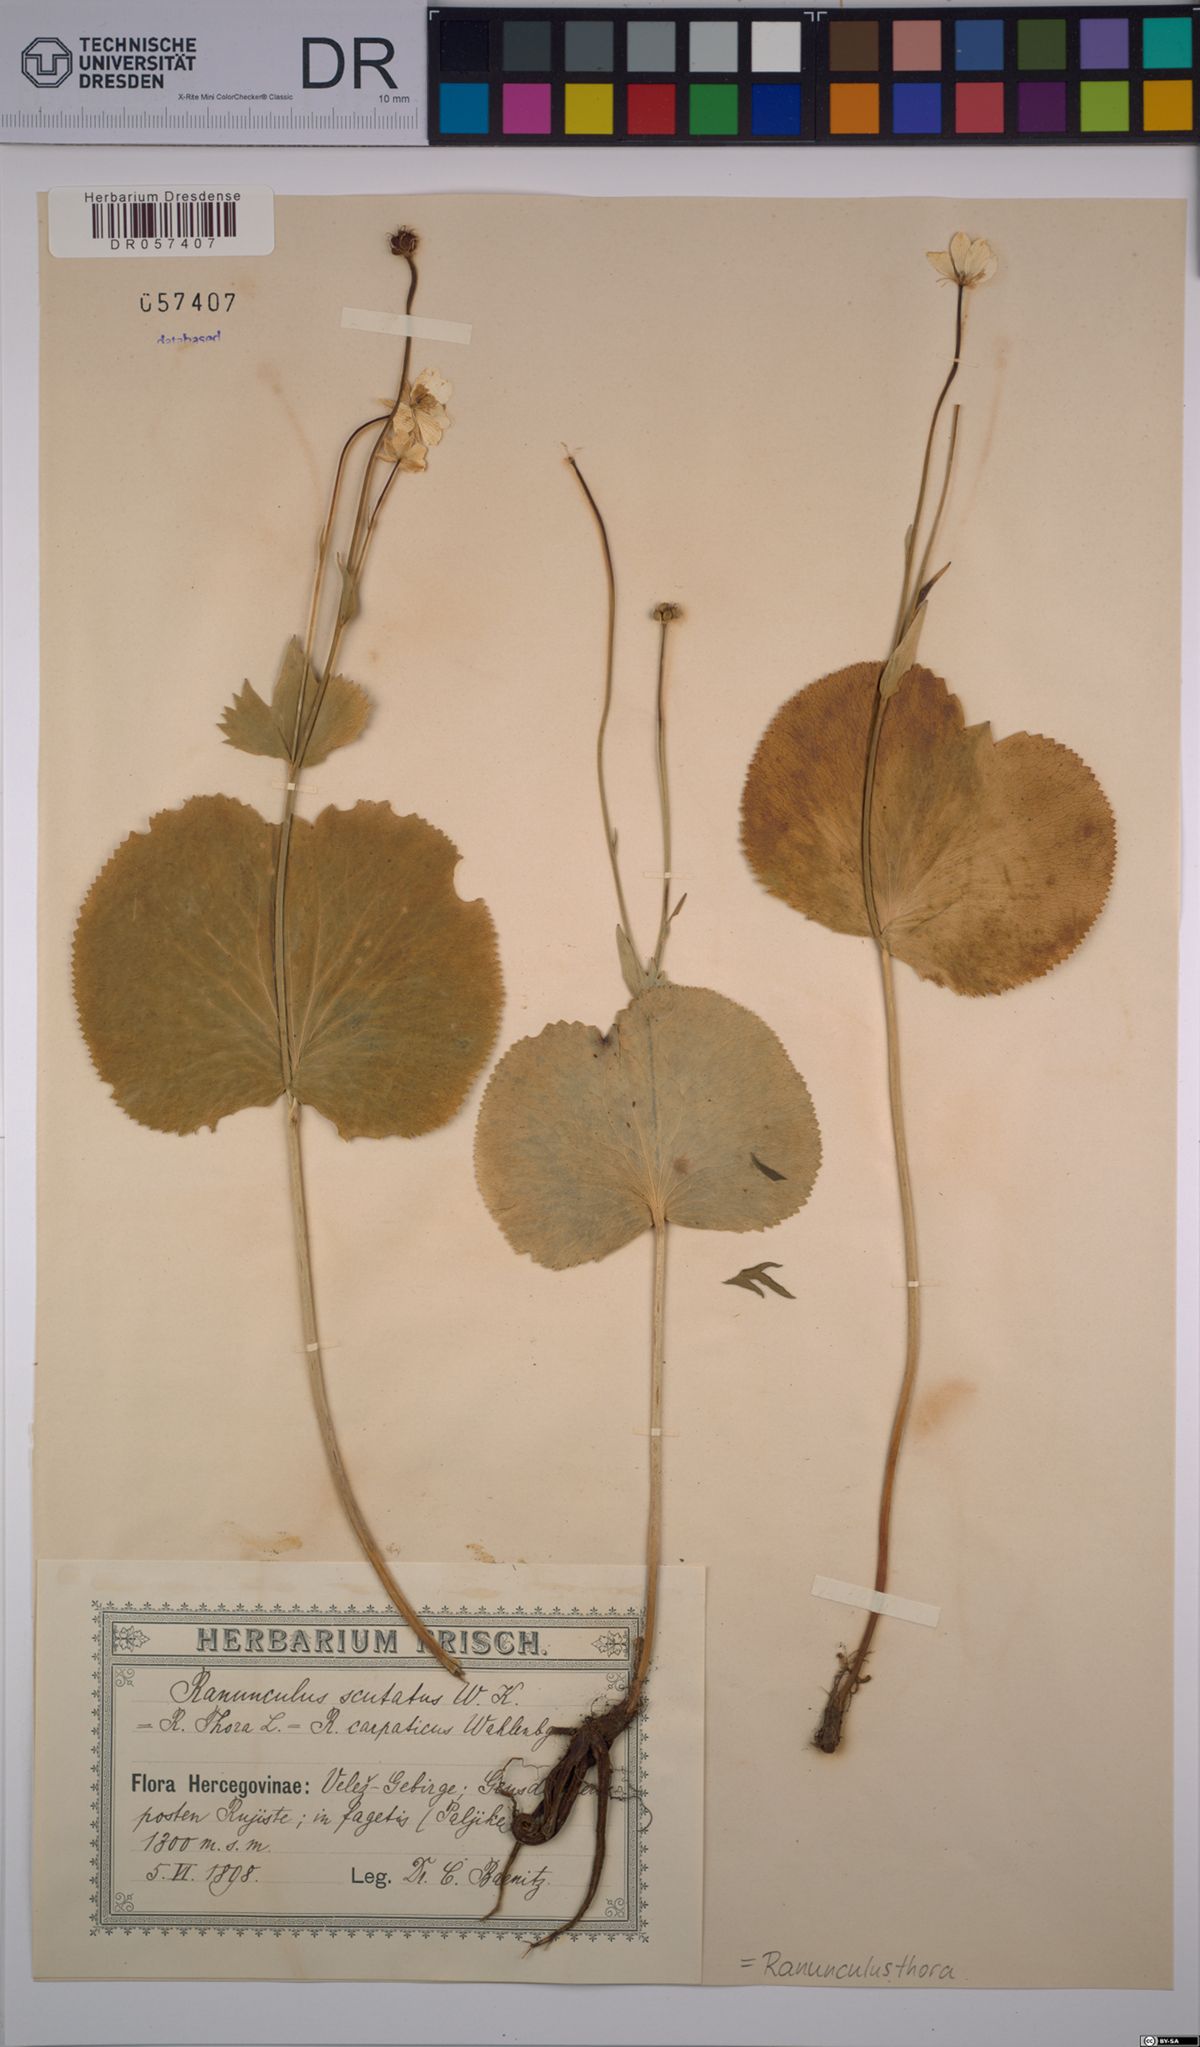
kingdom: Plantae
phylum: Tracheophyta
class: Magnoliopsida
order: Ranunculales
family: Ranunculaceae
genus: Ranunculus
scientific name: Ranunculus thora
